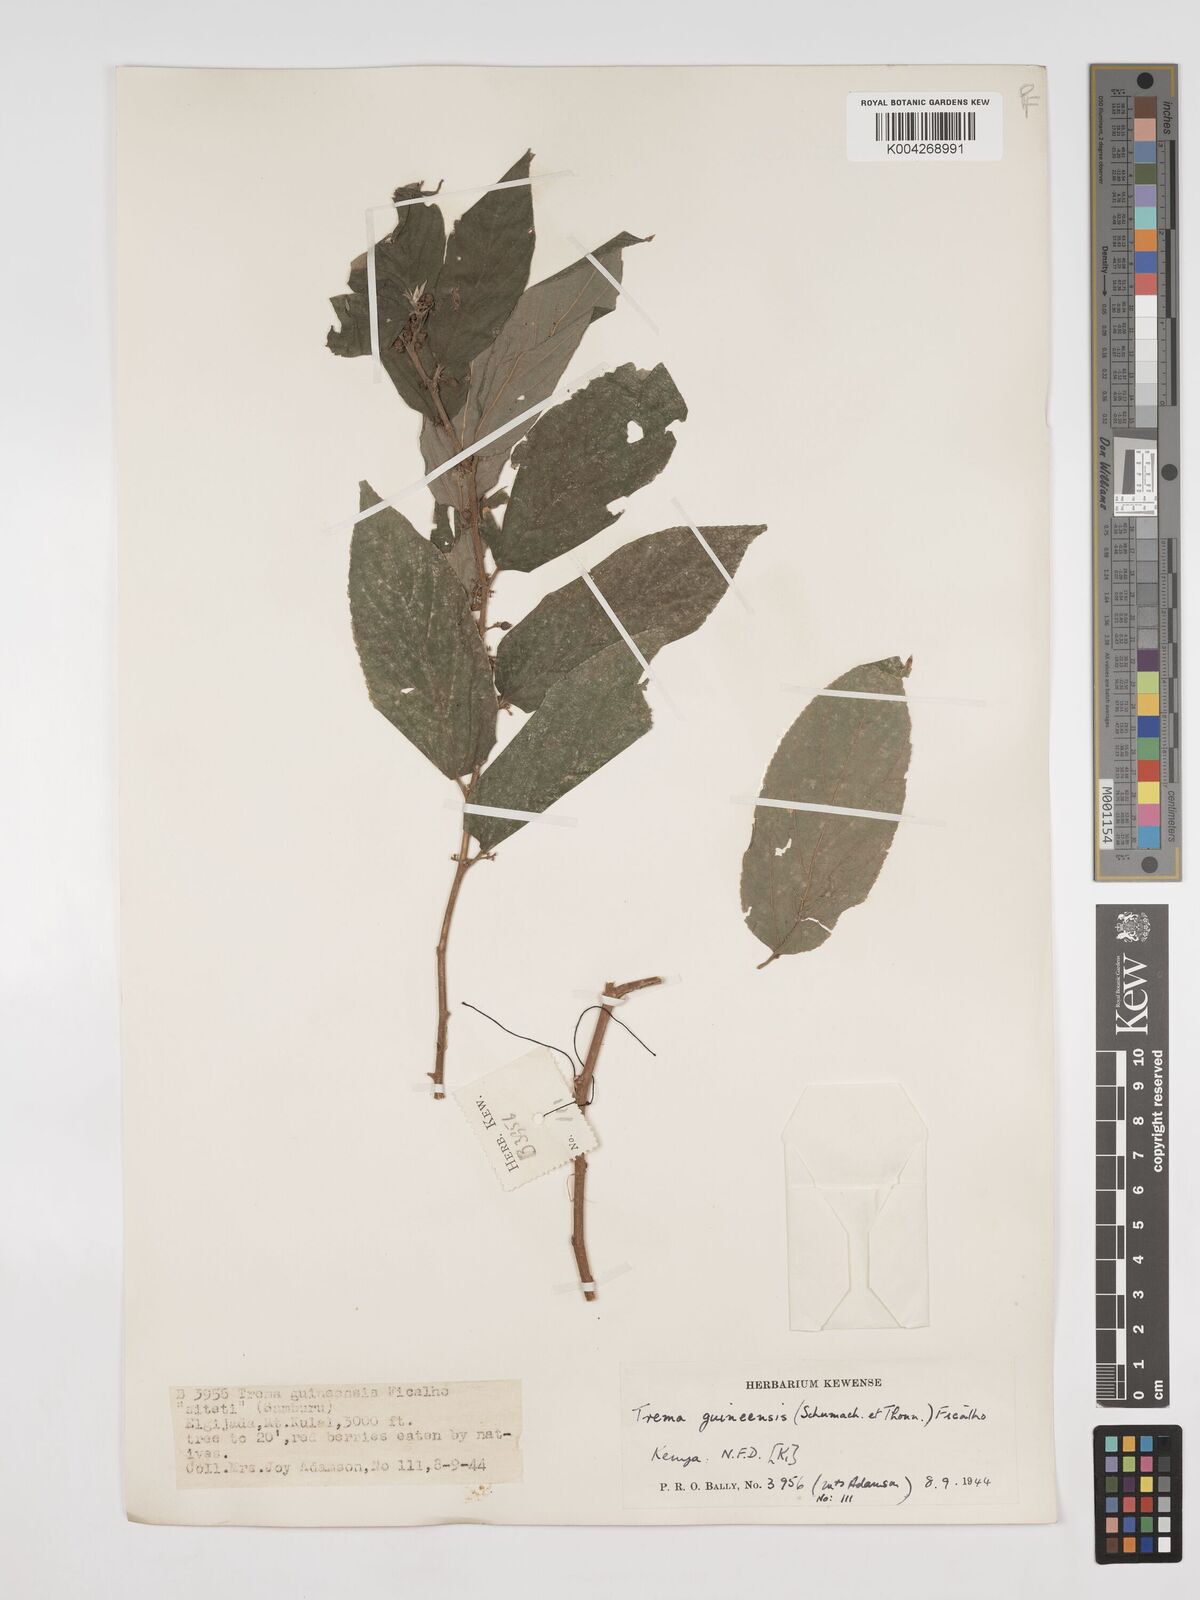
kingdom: Plantae
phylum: Tracheophyta
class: Magnoliopsida
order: Rosales
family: Cannabaceae
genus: Trema
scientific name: Trema orientale
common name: Indian charcoal tree
